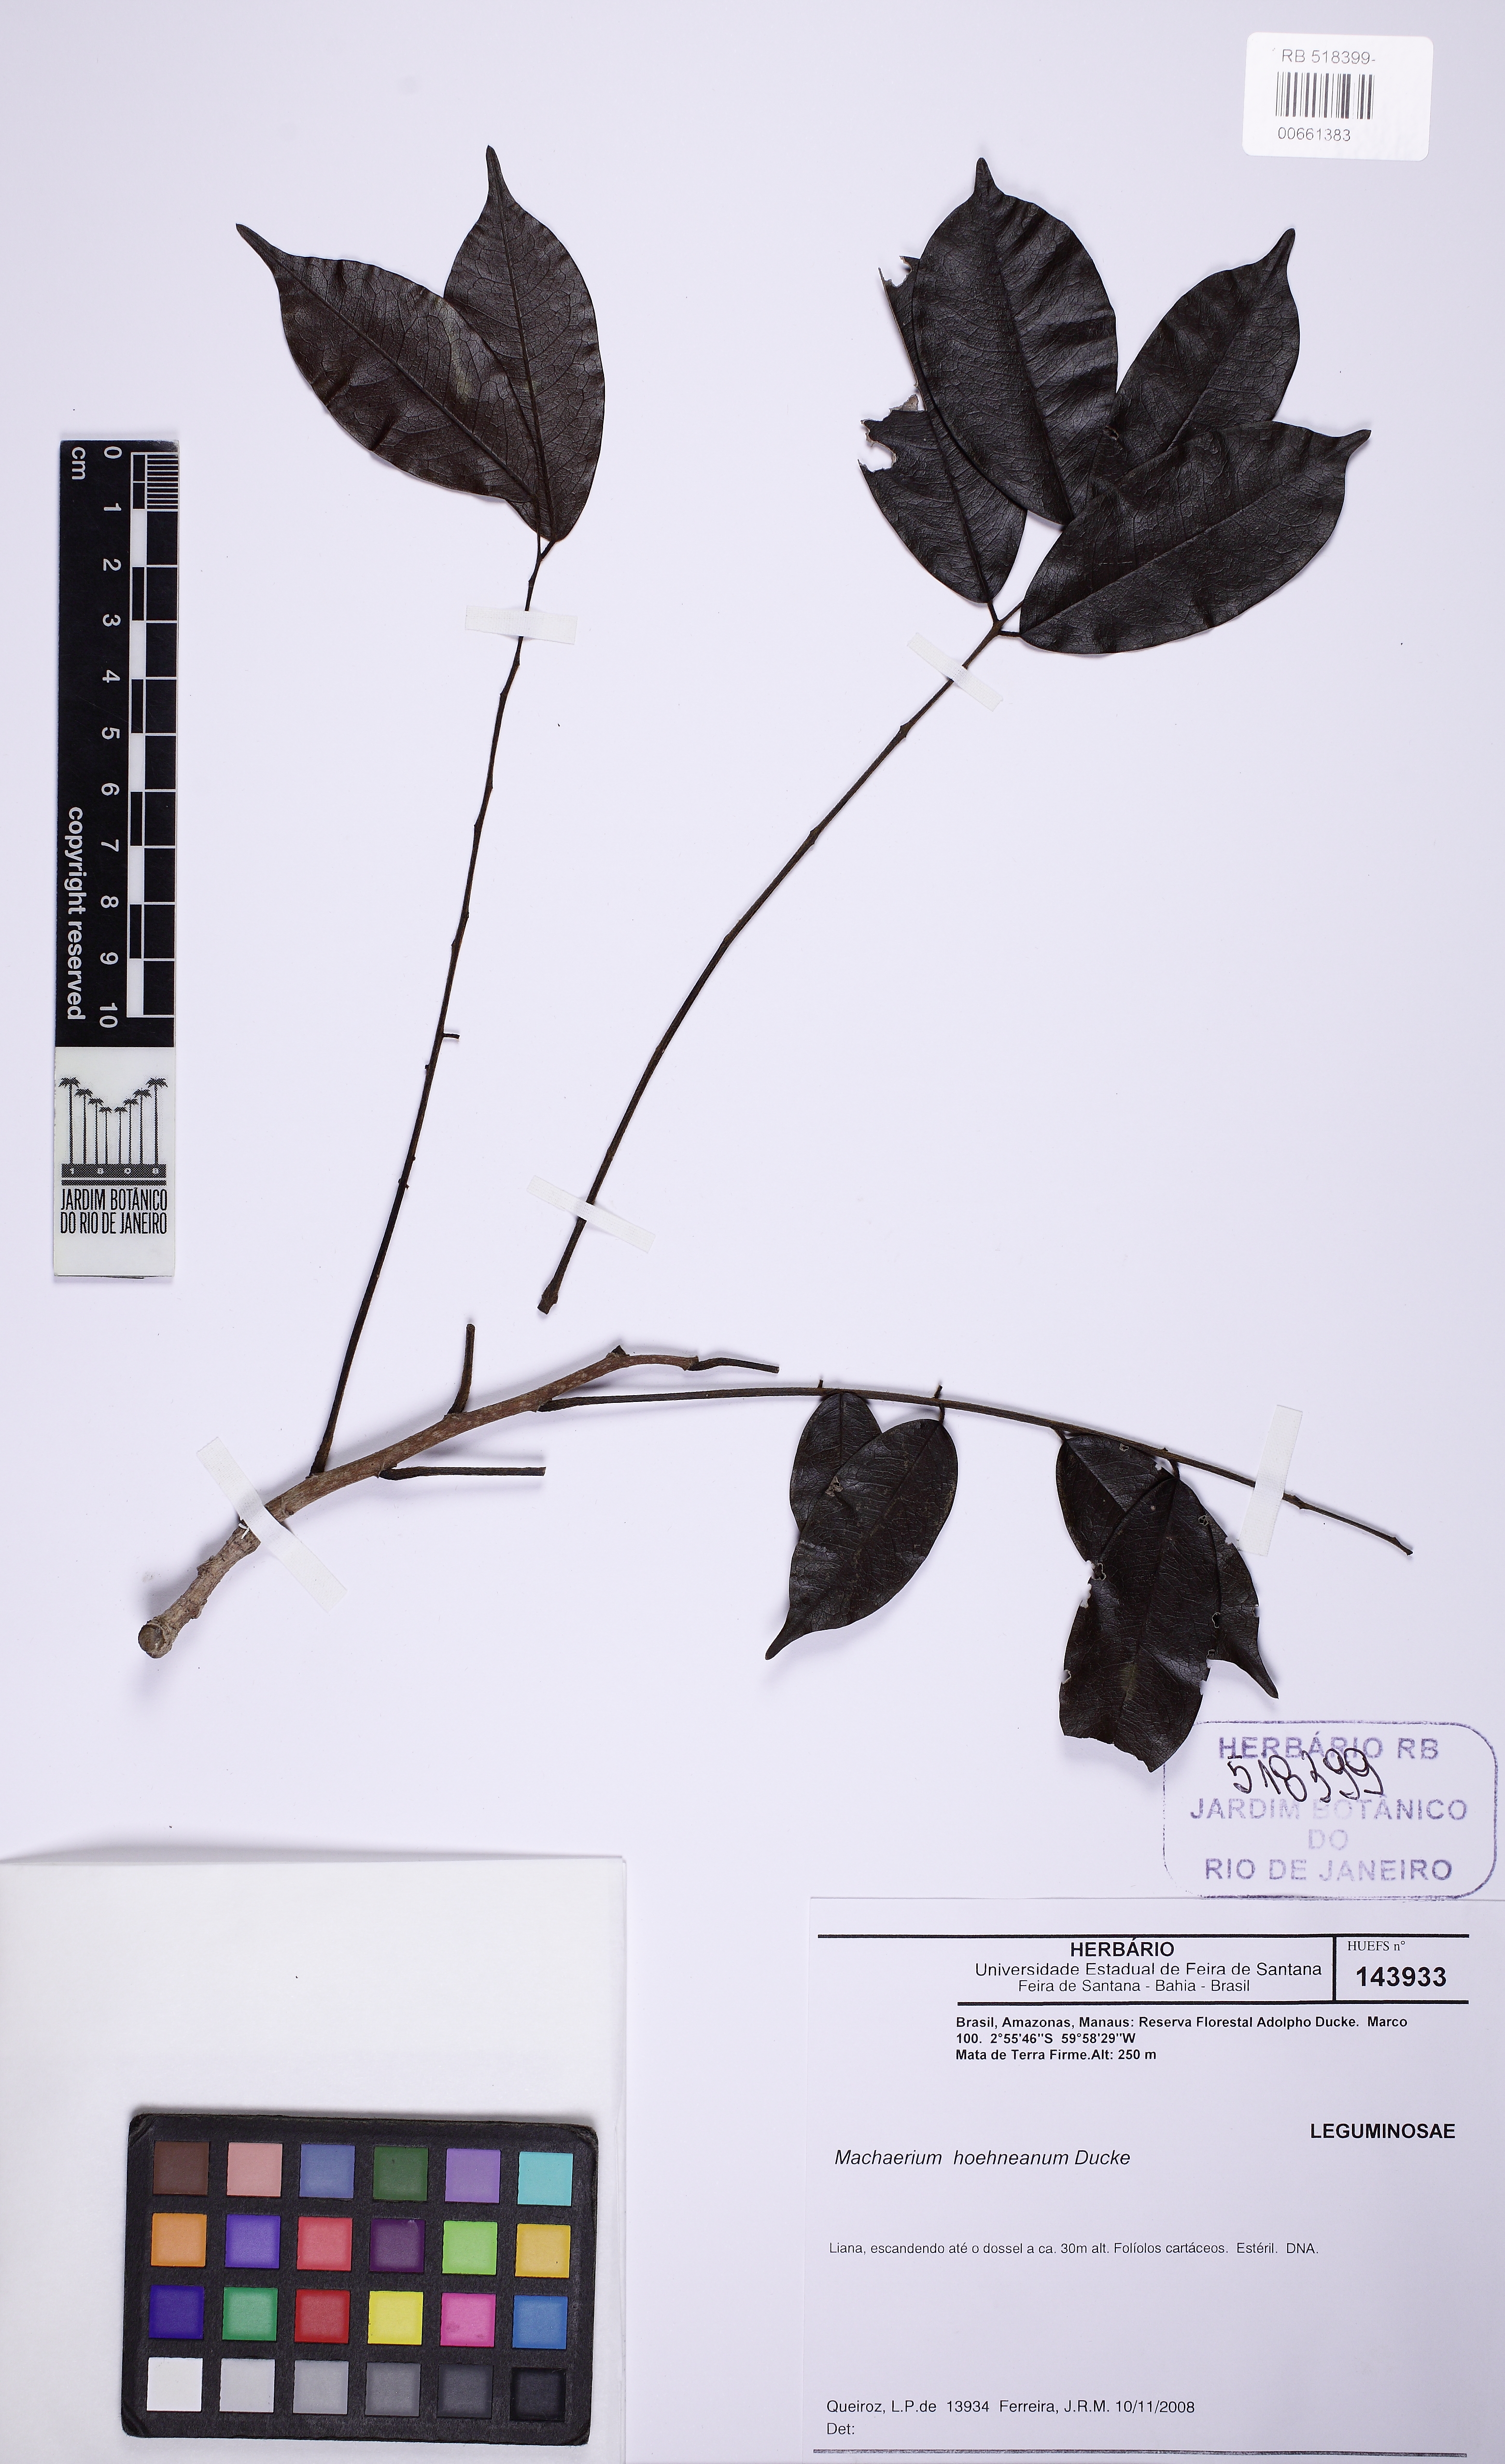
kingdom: Plantae
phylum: Tracheophyta
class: Magnoliopsida
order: Fabales
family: Fabaceae
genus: Machaerium
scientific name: Machaerium hoehneanum
